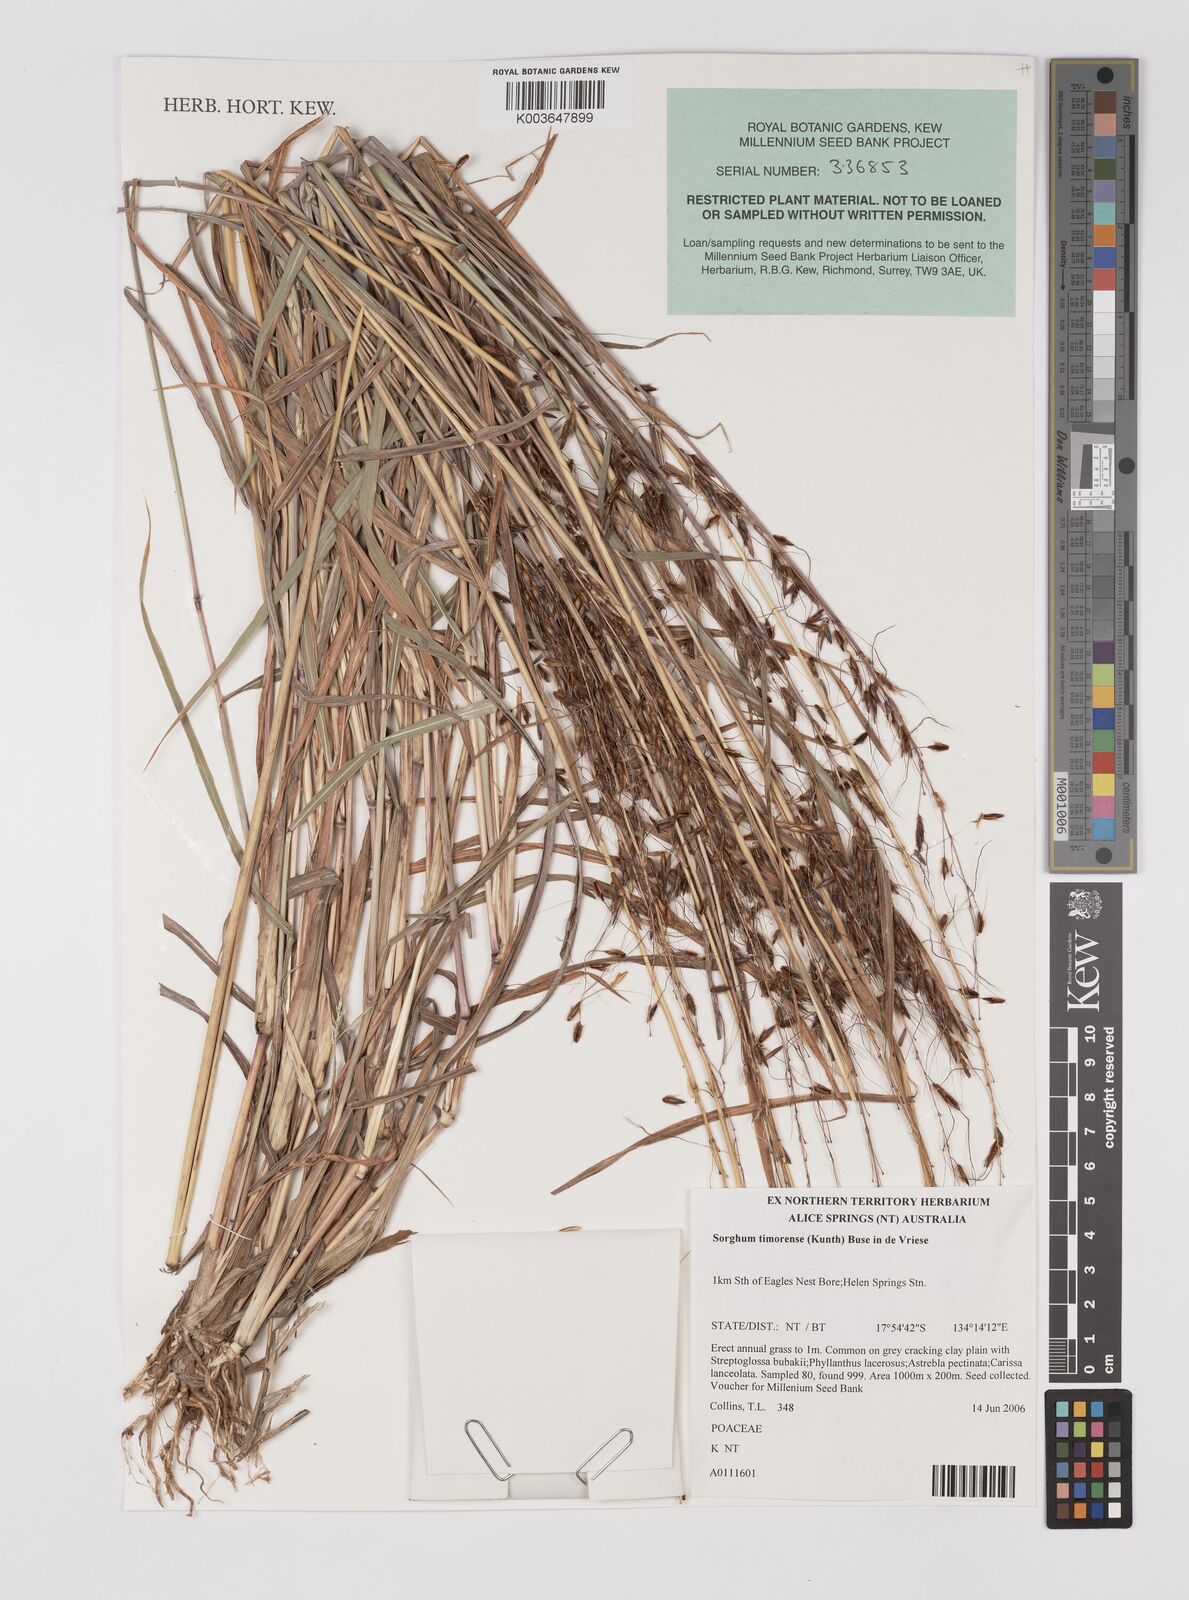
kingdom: Plantae
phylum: Tracheophyta
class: Liliopsida
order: Poales
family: Poaceae
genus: Sarga
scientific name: Sarga timorensis
